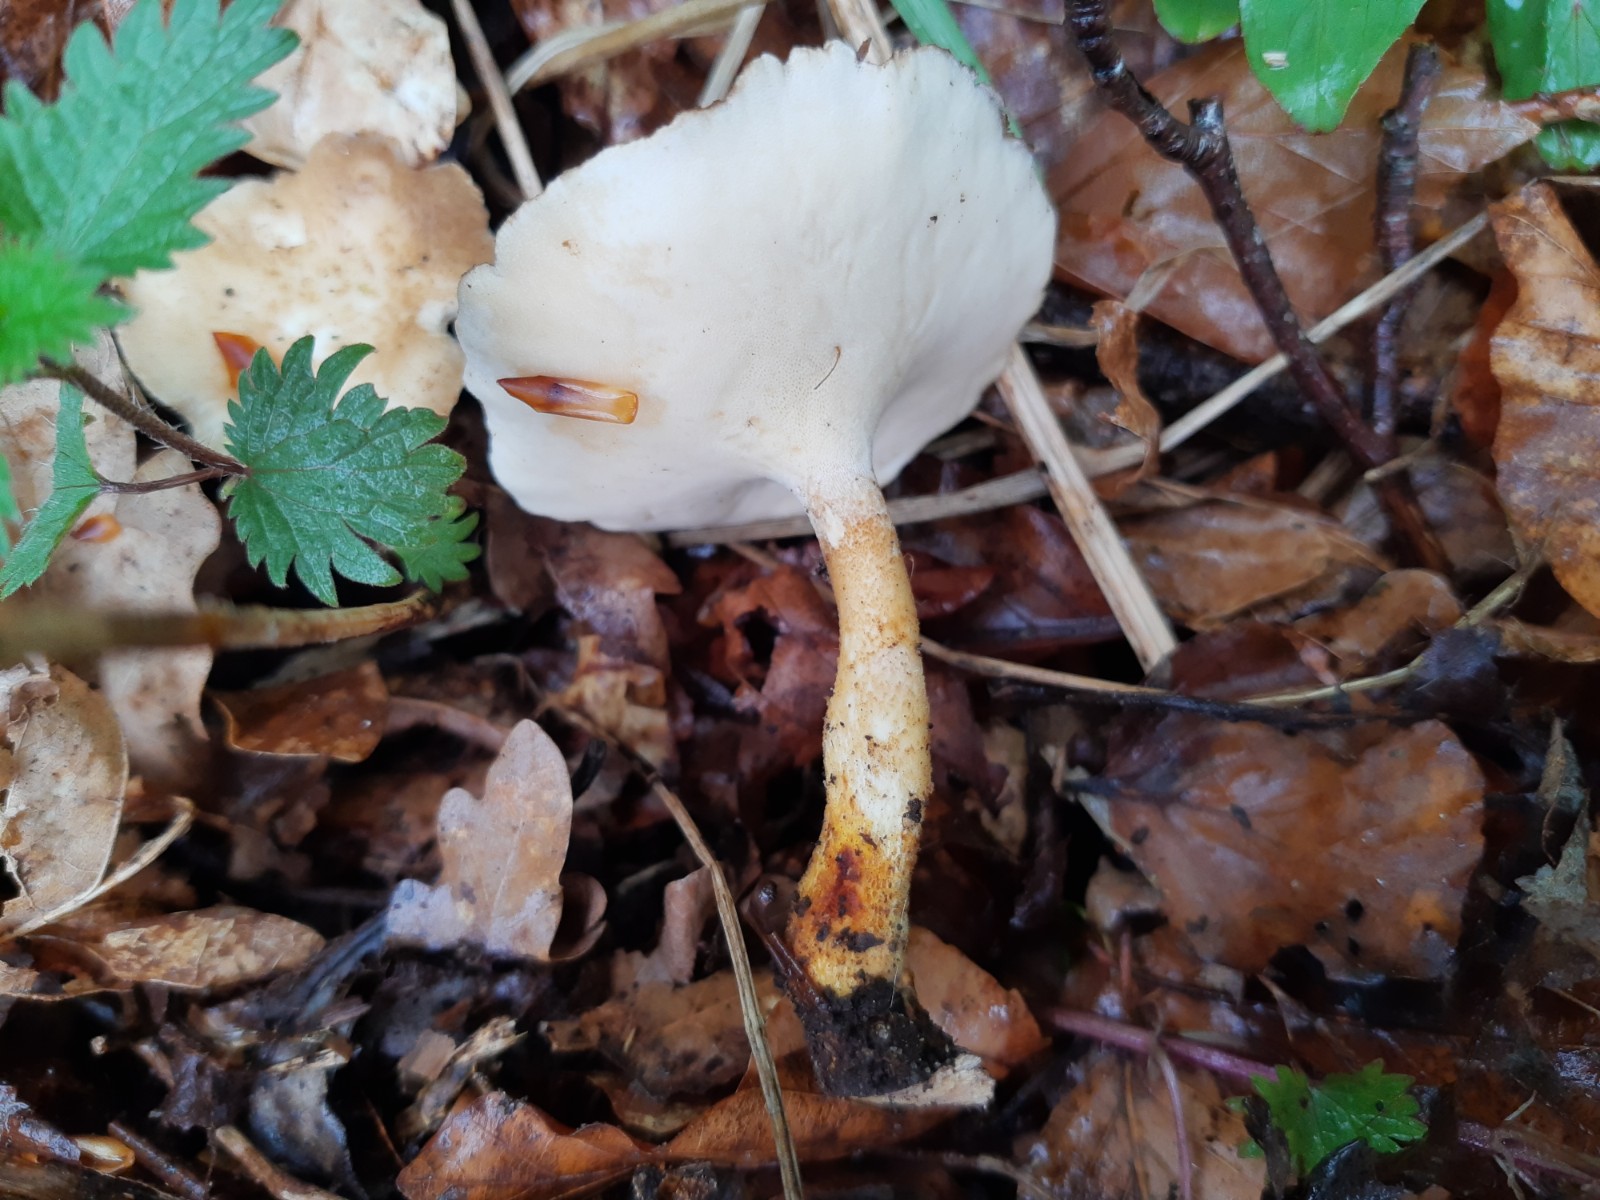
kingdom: Fungi
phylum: Basidiomycota
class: Agaricomycetes
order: Polyporales
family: Polyporaceae
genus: Lentinus
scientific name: Lentinus substrictus
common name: forårs-stilkporesvamp
